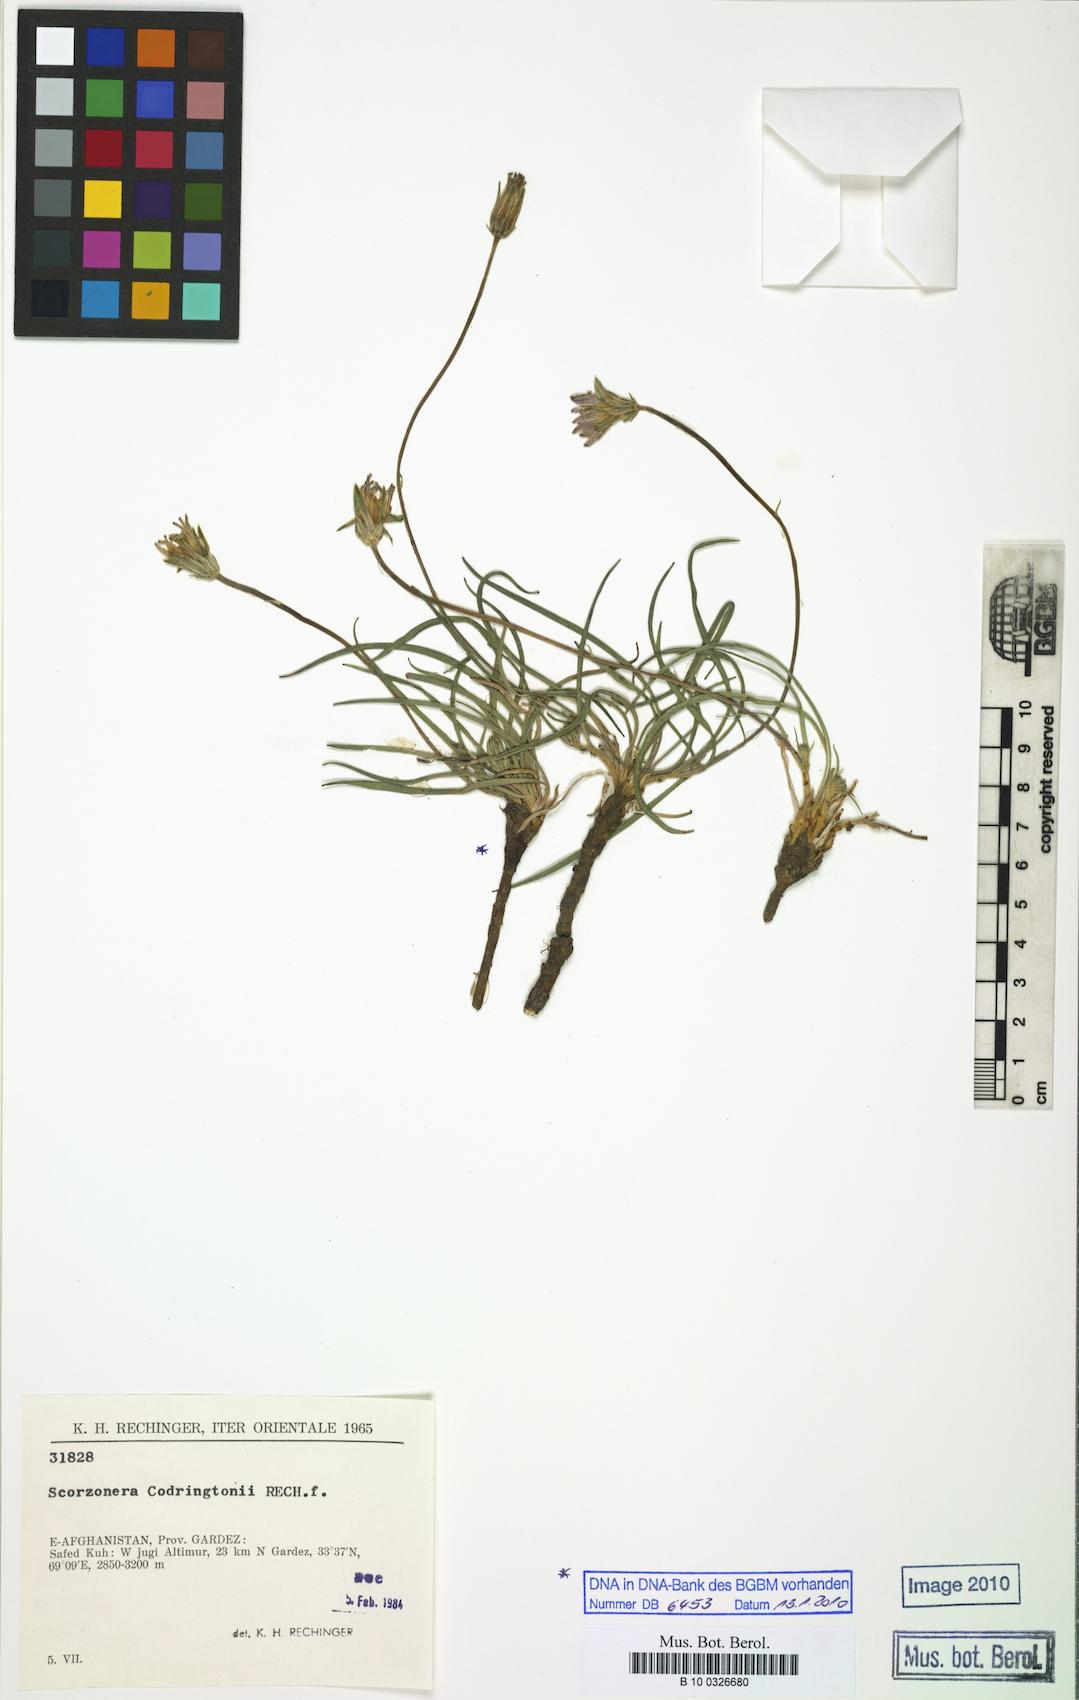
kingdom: Plantae
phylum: Tracheophyta
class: Magnoliopsida
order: Asterales
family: Asteraceae
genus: Pterachaenia
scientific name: Pterachaenia codringtonii
